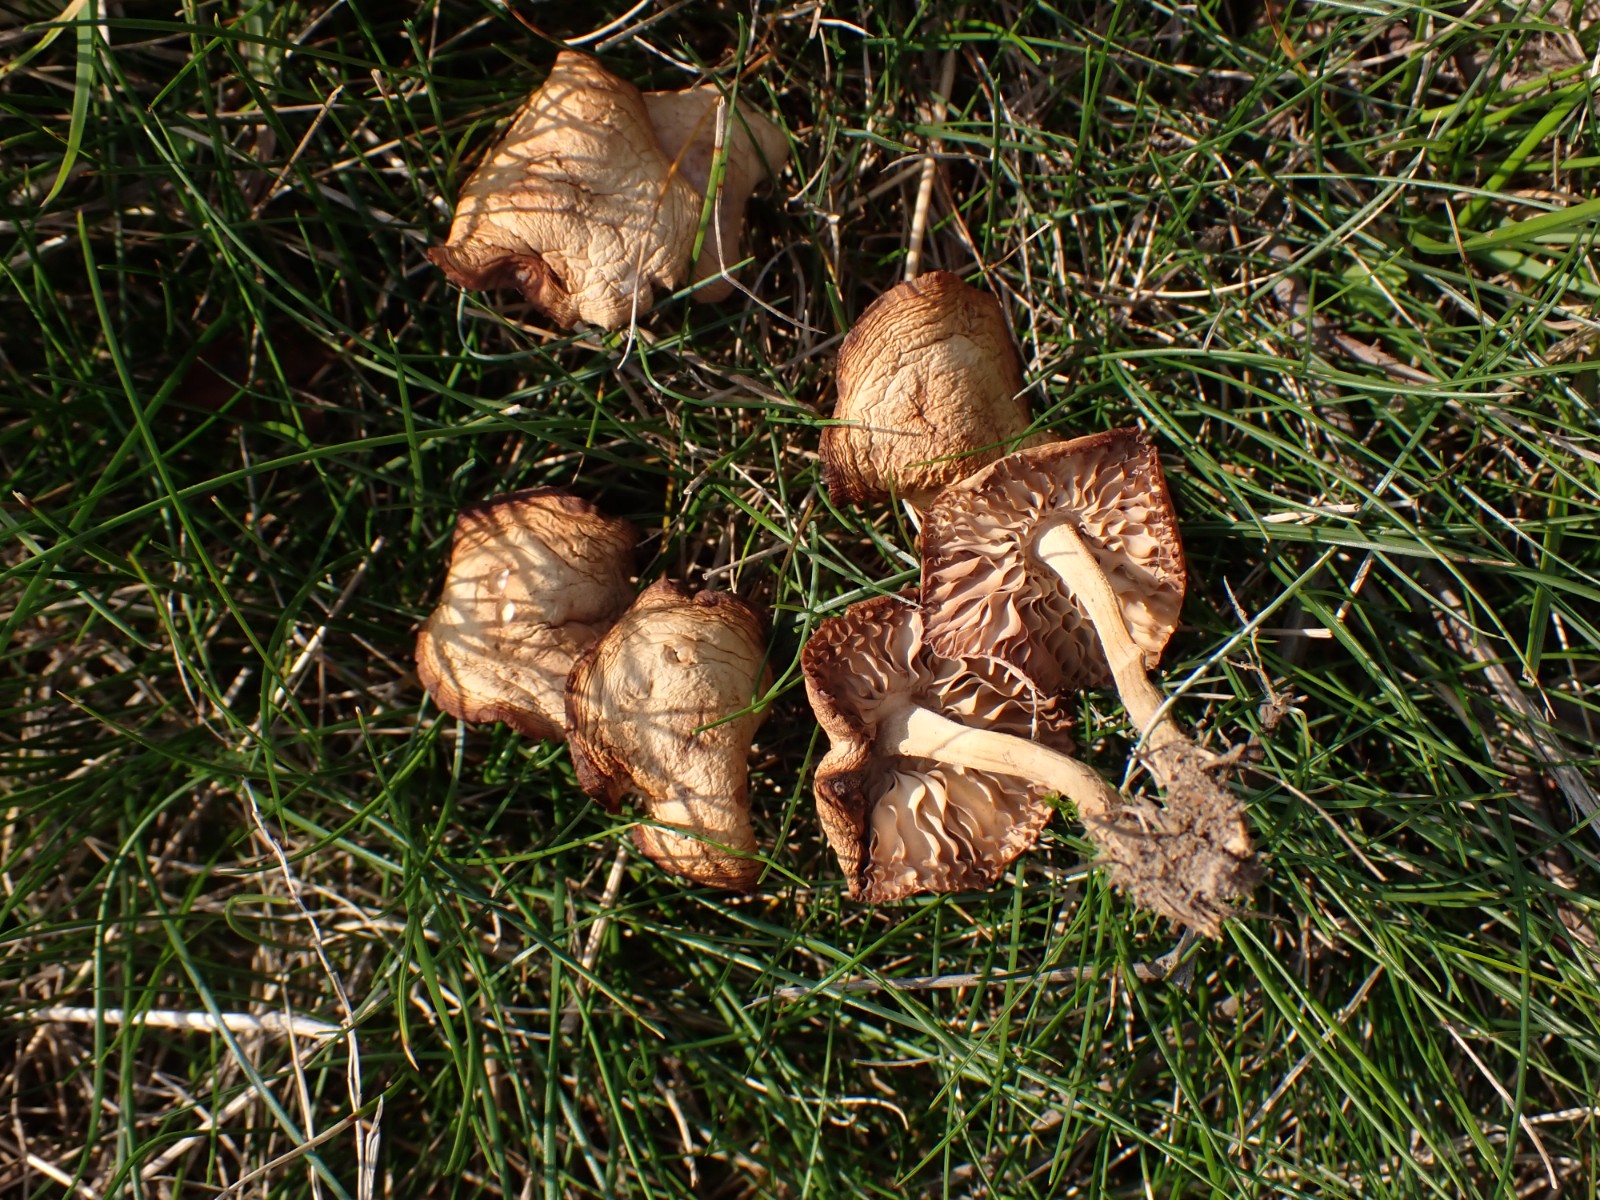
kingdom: Fungi
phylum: Basidiomycota
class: Agaricomycetes
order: Agaricales
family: Marasmiaceae
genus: Marasmius
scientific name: Marasmius oreades
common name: elledans-bruskhat
